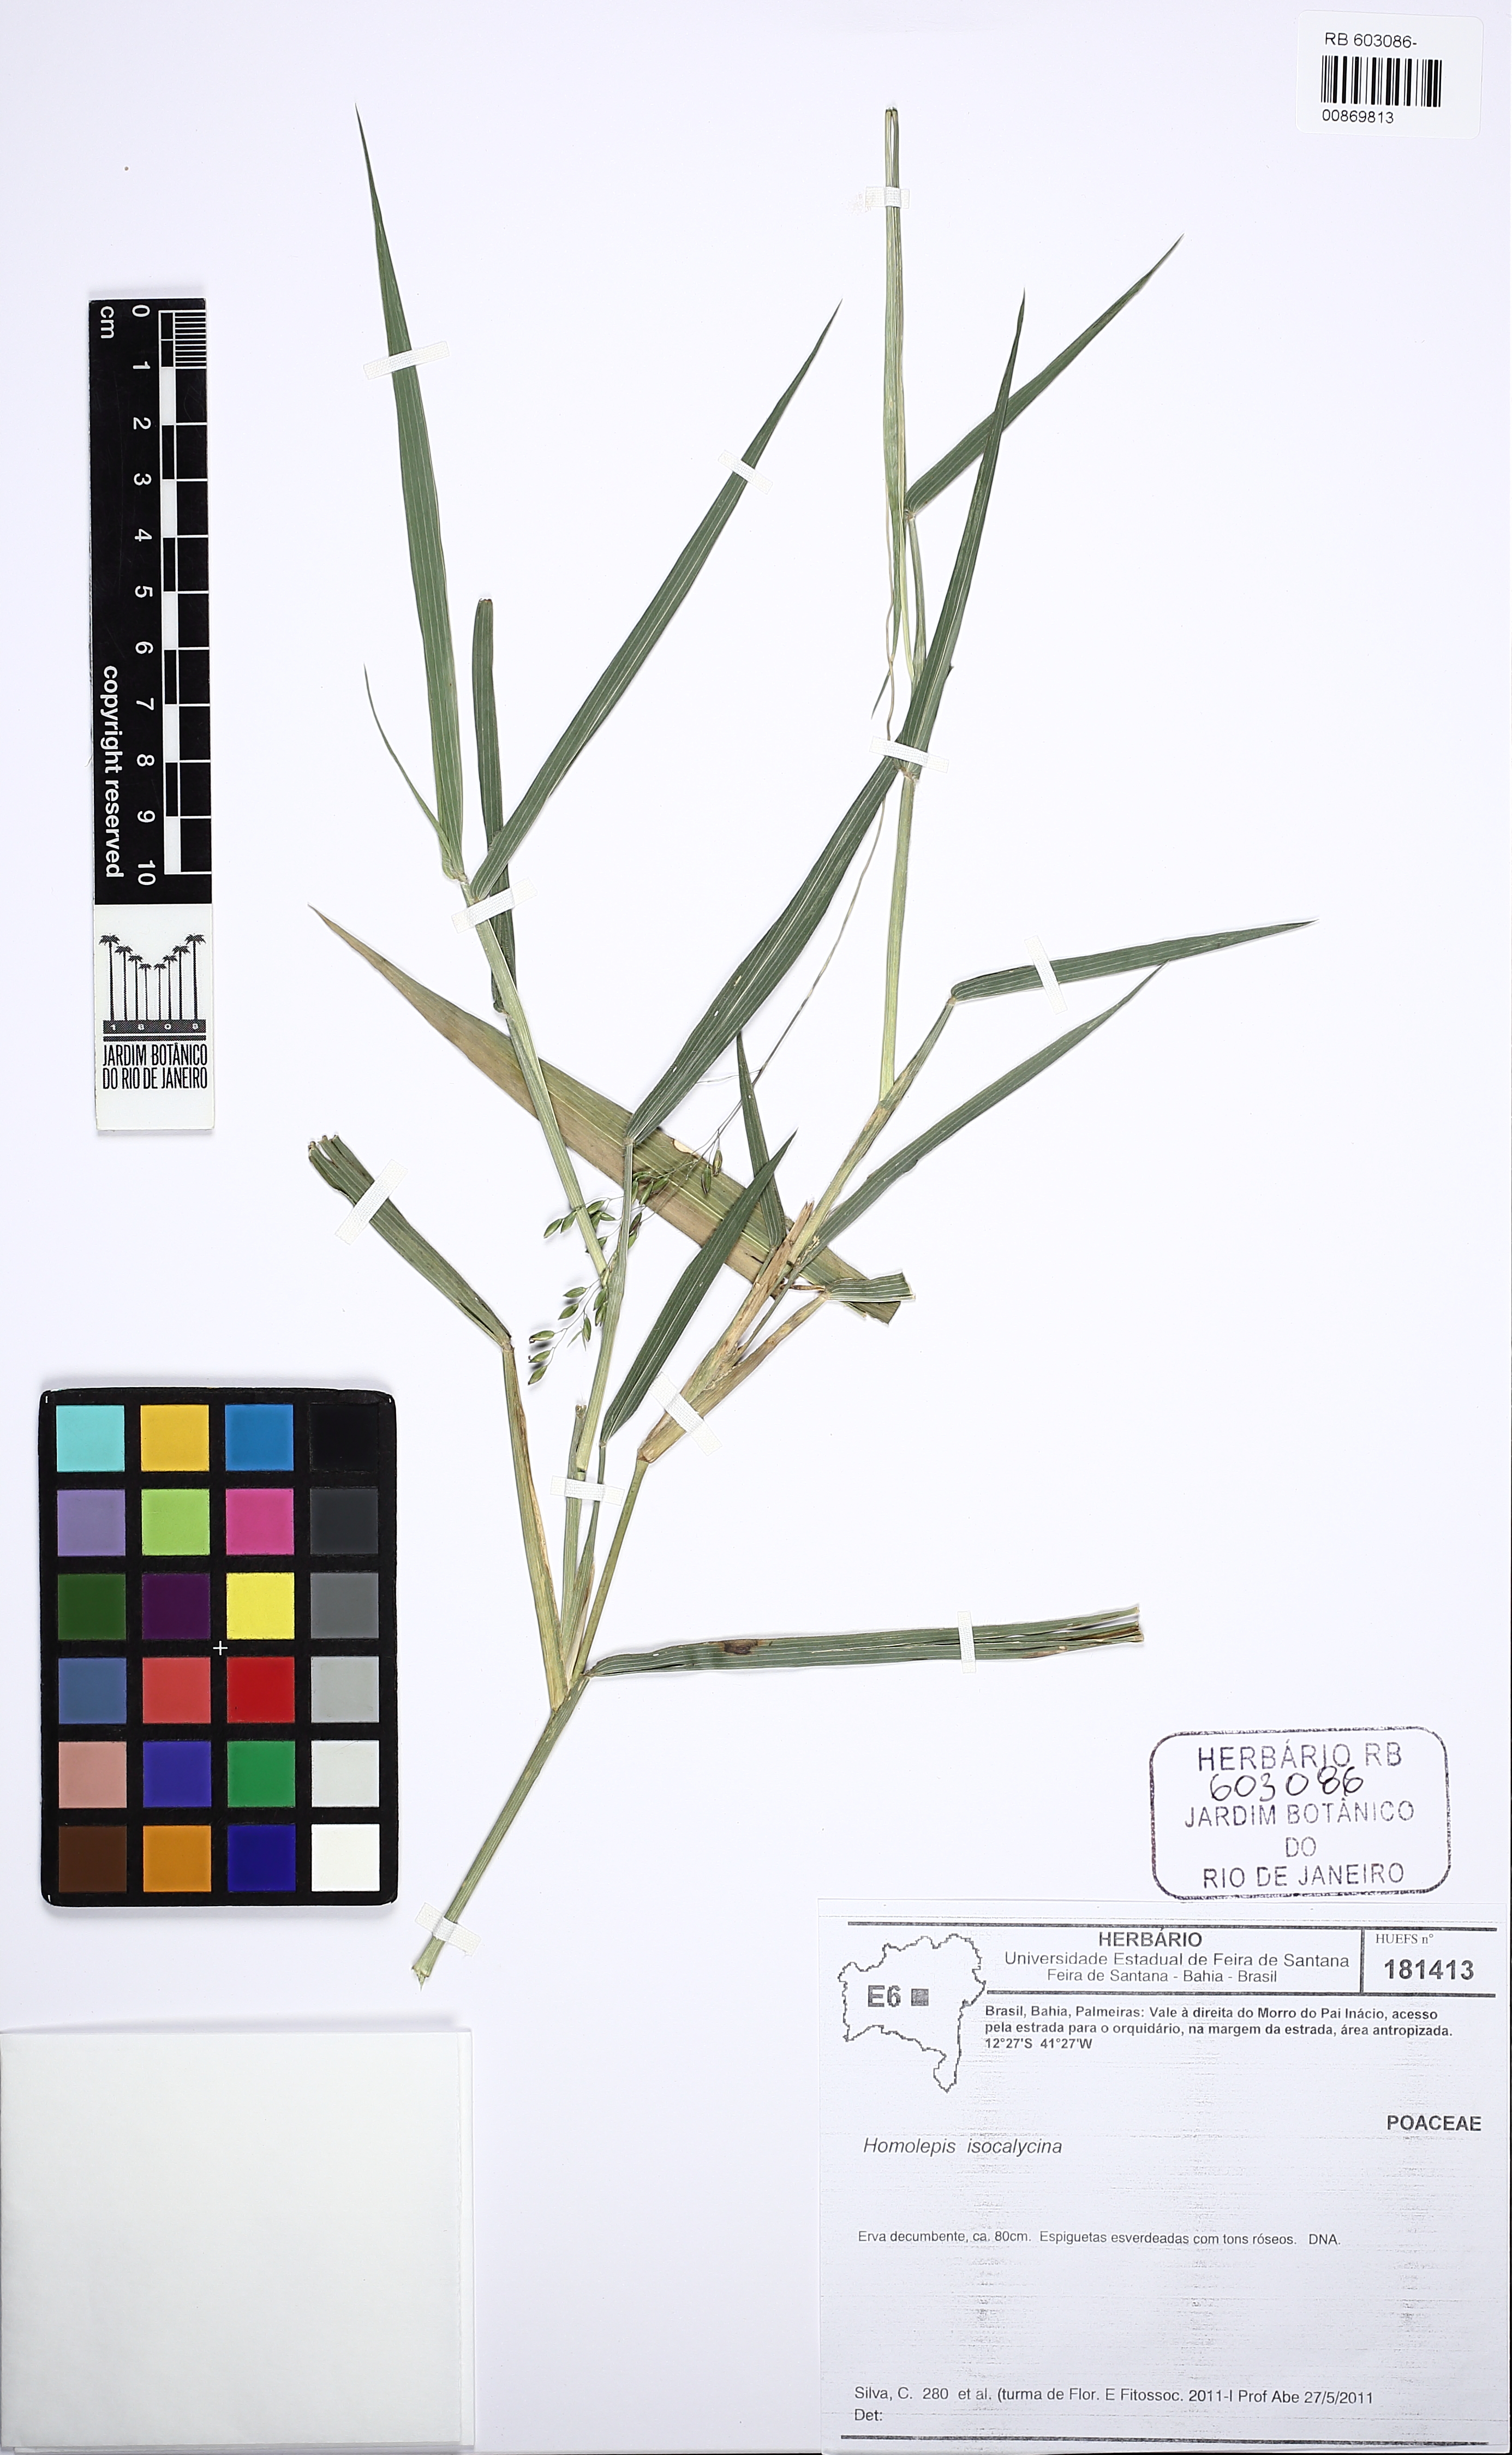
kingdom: Plantae
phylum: Tracheophyta
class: Liliopsida
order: Poales
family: Poaceae
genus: Homolepis
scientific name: Homolepis isocalycia
